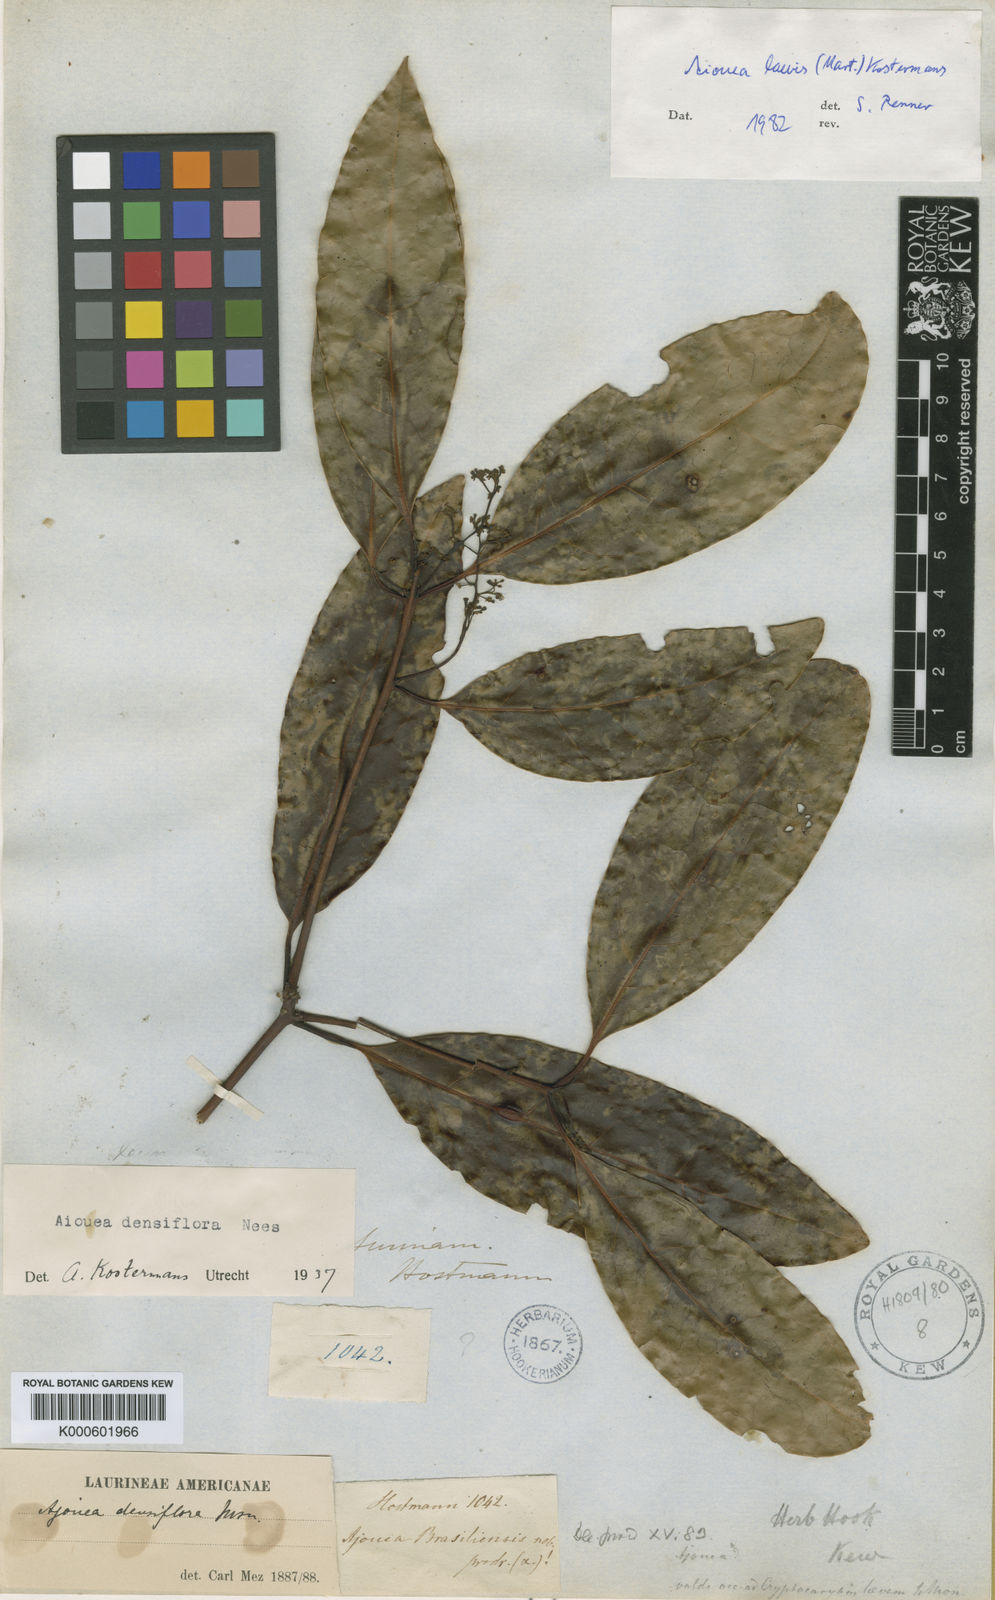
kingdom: Plantae
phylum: Tracheophyta
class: Magnoliopsida
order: Laurales
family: Lauraceae
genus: Aiouea
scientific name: Aiouea laevis
